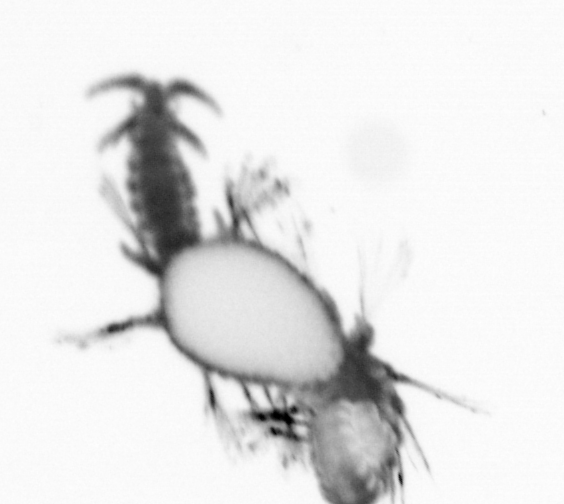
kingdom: Animalia
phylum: Annelida
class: Polychaeta
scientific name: Polychaeta
